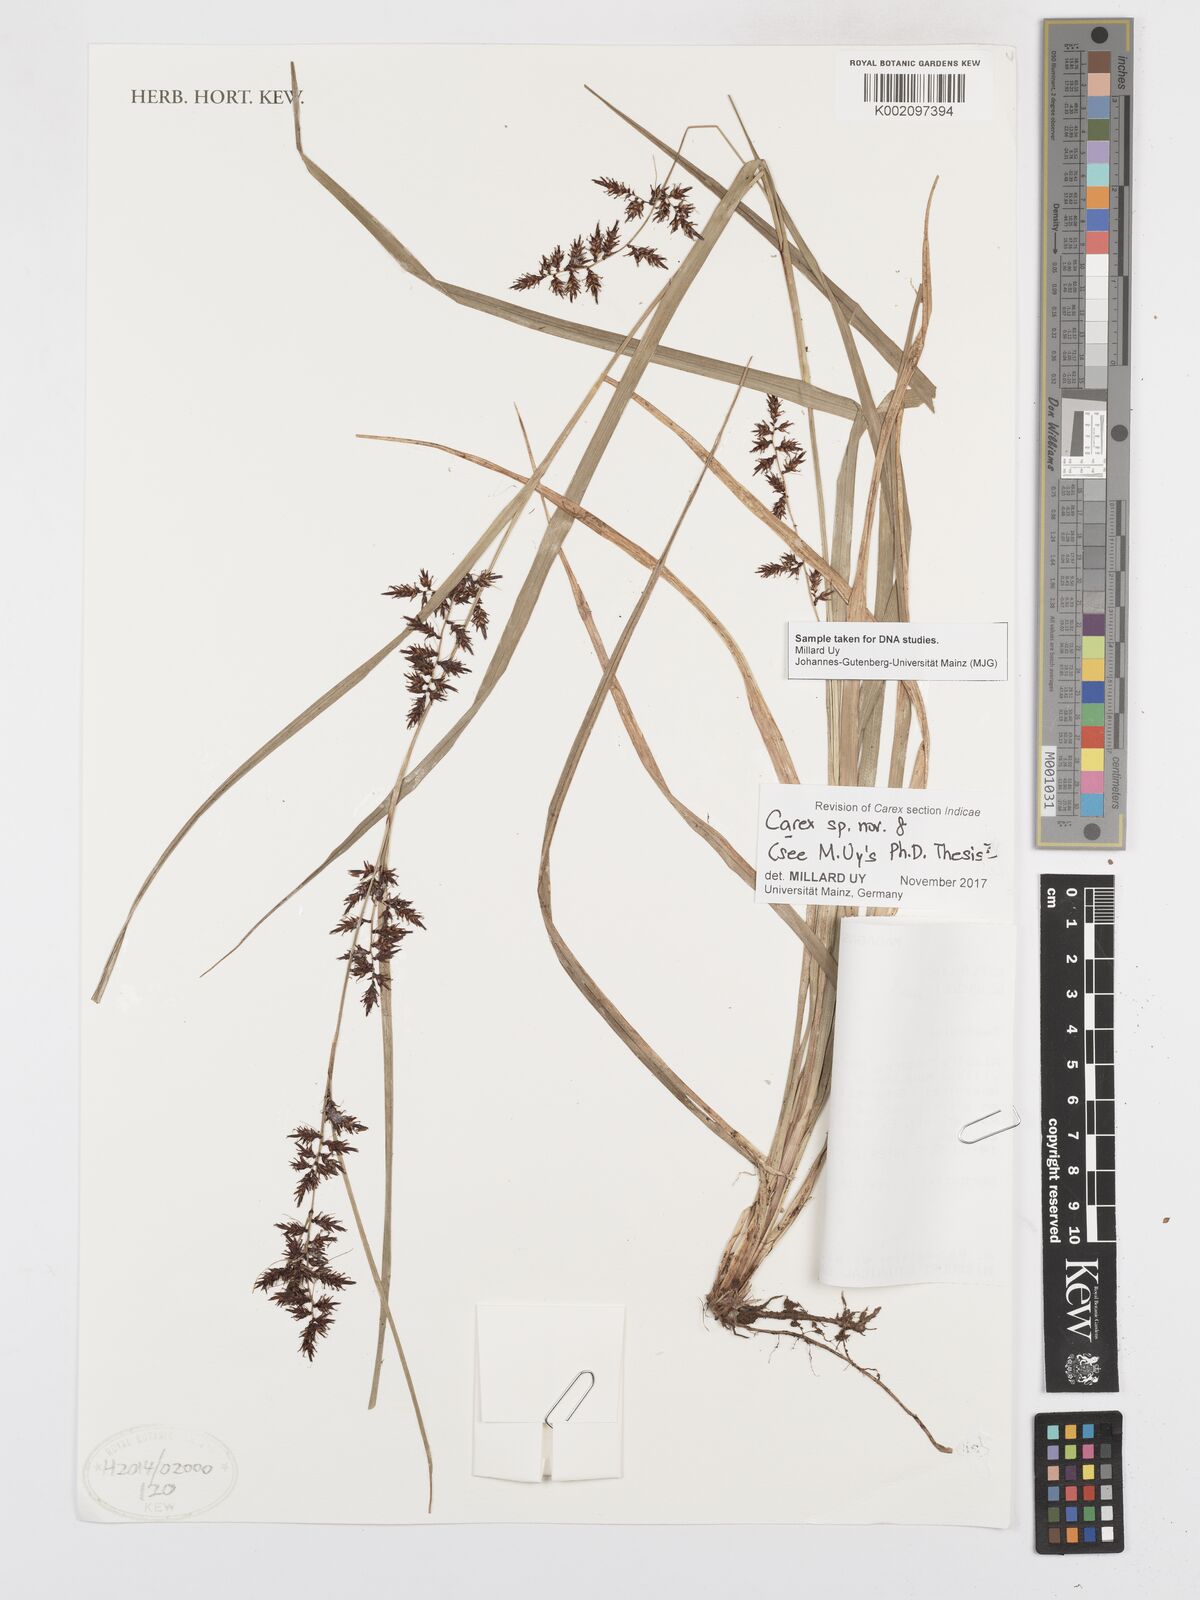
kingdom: Plantae
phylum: Tracheophyta
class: Liliopsida
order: Poales
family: Cyperaceae
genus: Carex
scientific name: Carex
